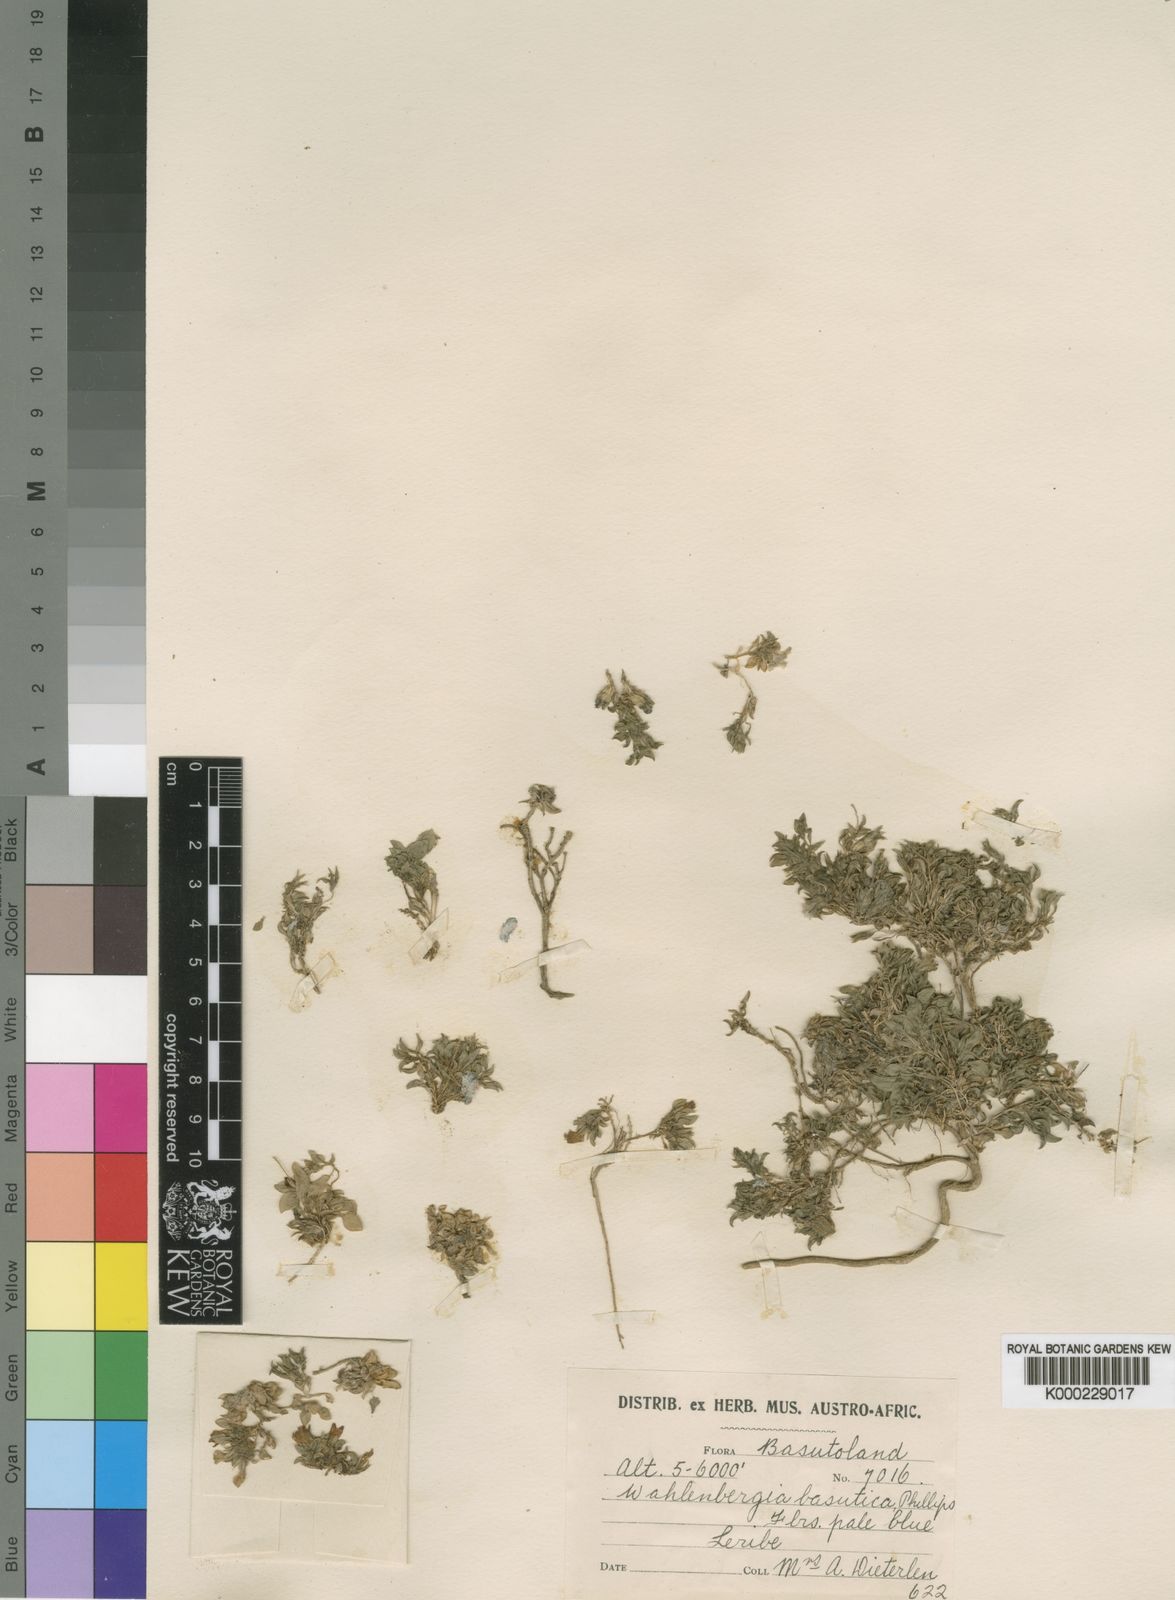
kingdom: Plantae
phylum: Tracheophyta
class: Magnoliopsida
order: Asterales
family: Campanulaceae
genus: Craterocapsa
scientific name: Craterocapsa montana
